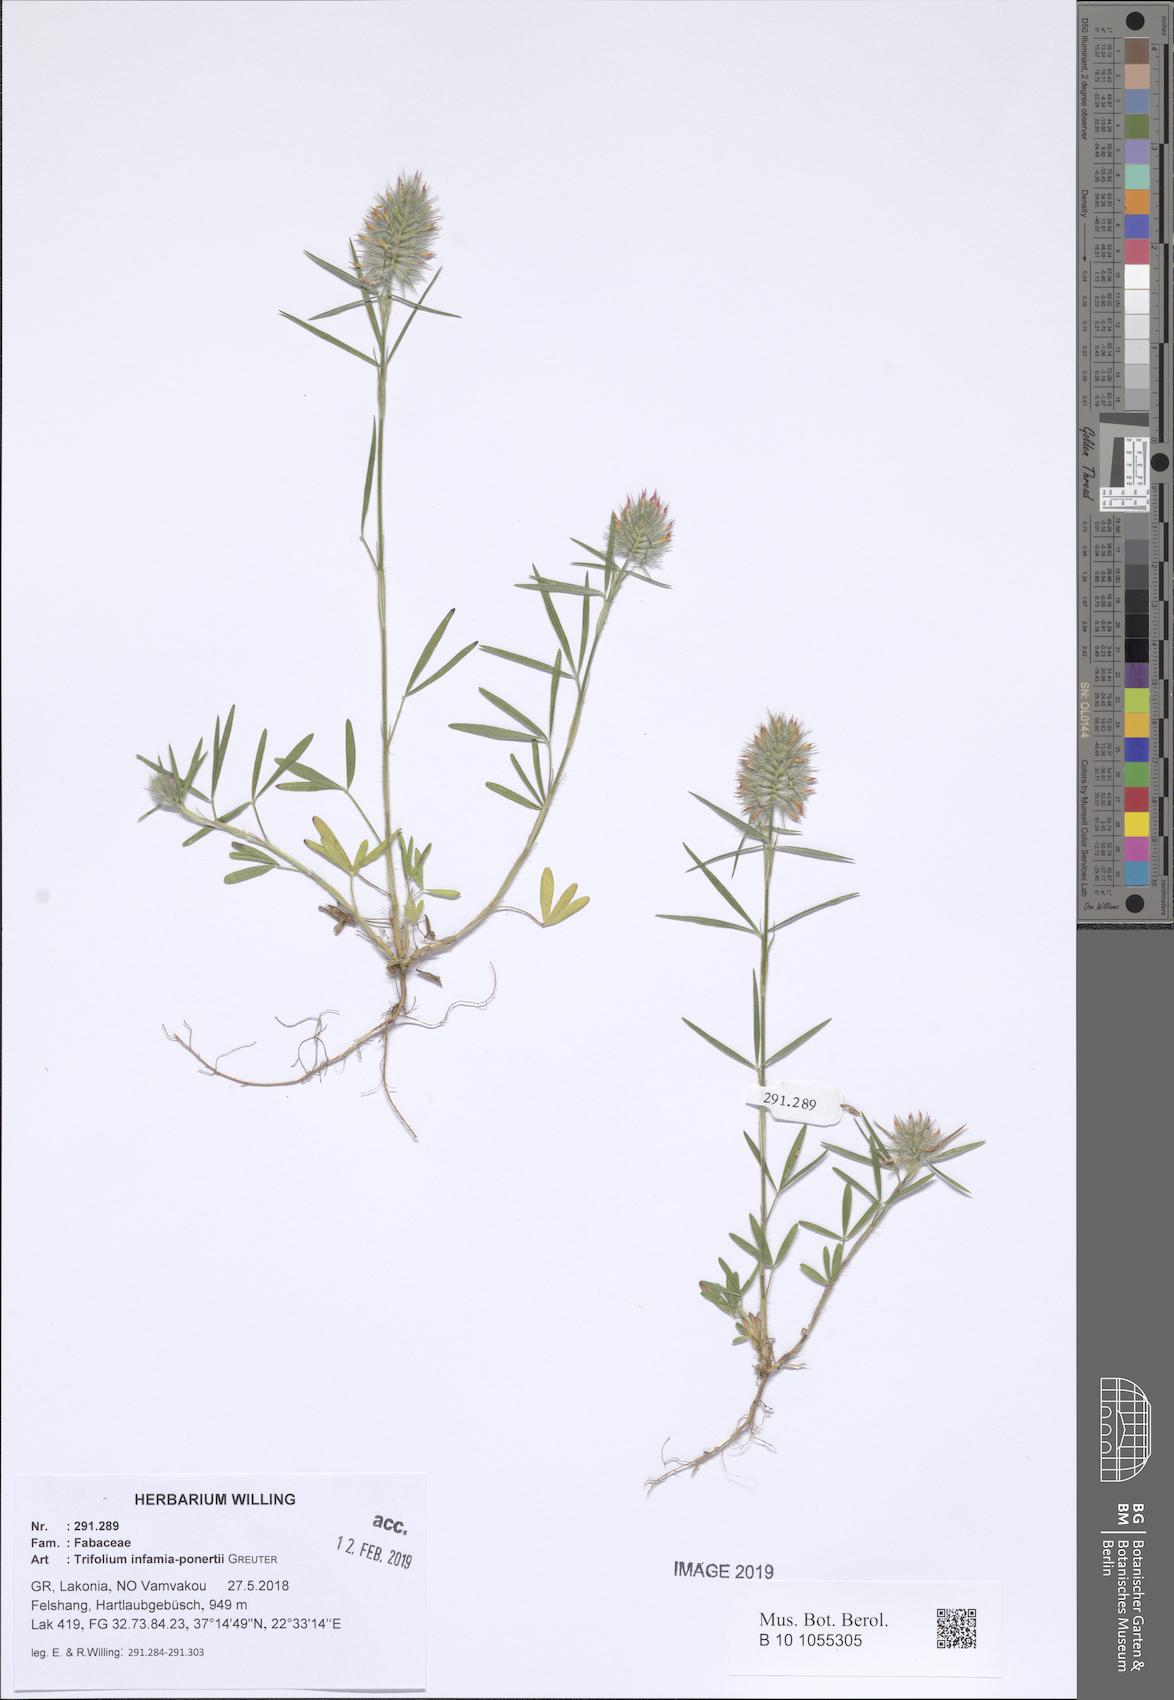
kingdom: Plantae
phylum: Tracheophyta
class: Magnoliopsida
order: Fabales
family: Fabaceae
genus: Trifolium
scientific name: Trifolium infamia-ponertii
